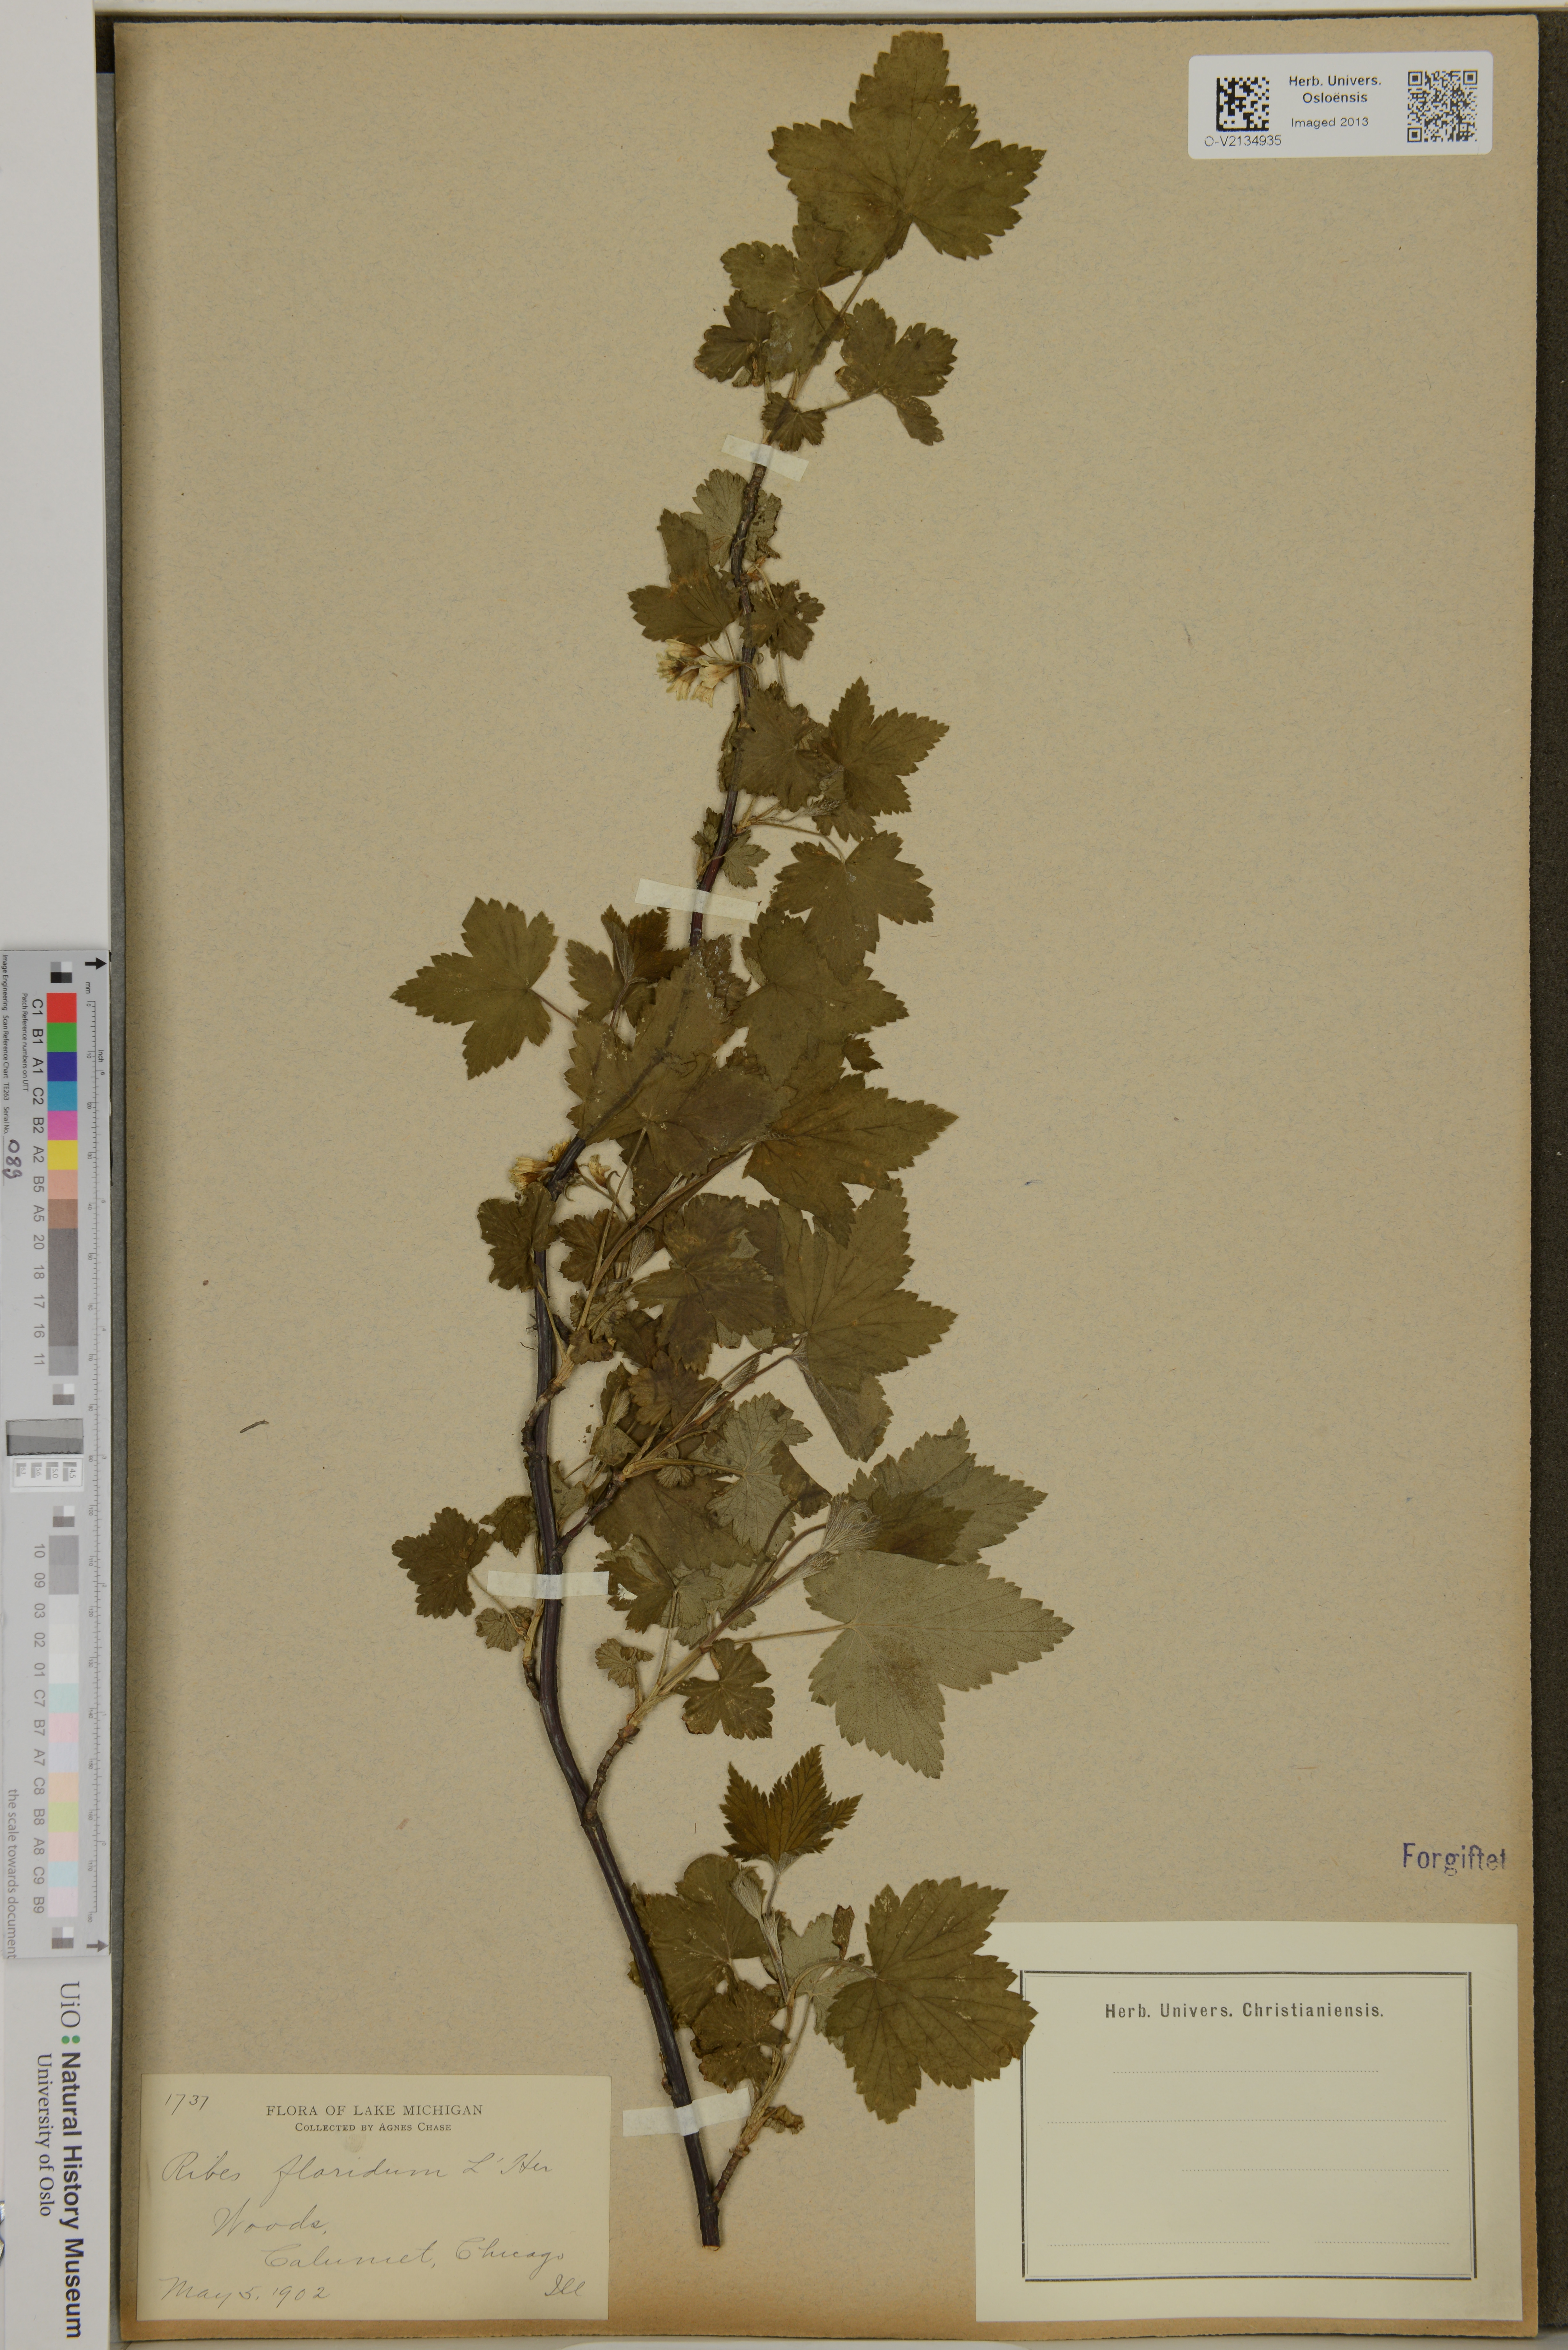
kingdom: Plantae
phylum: Tracheophyta
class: Magnoliopsida
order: Saxifragales
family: Grossulariaceae
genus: Ribes
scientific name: Ribes
